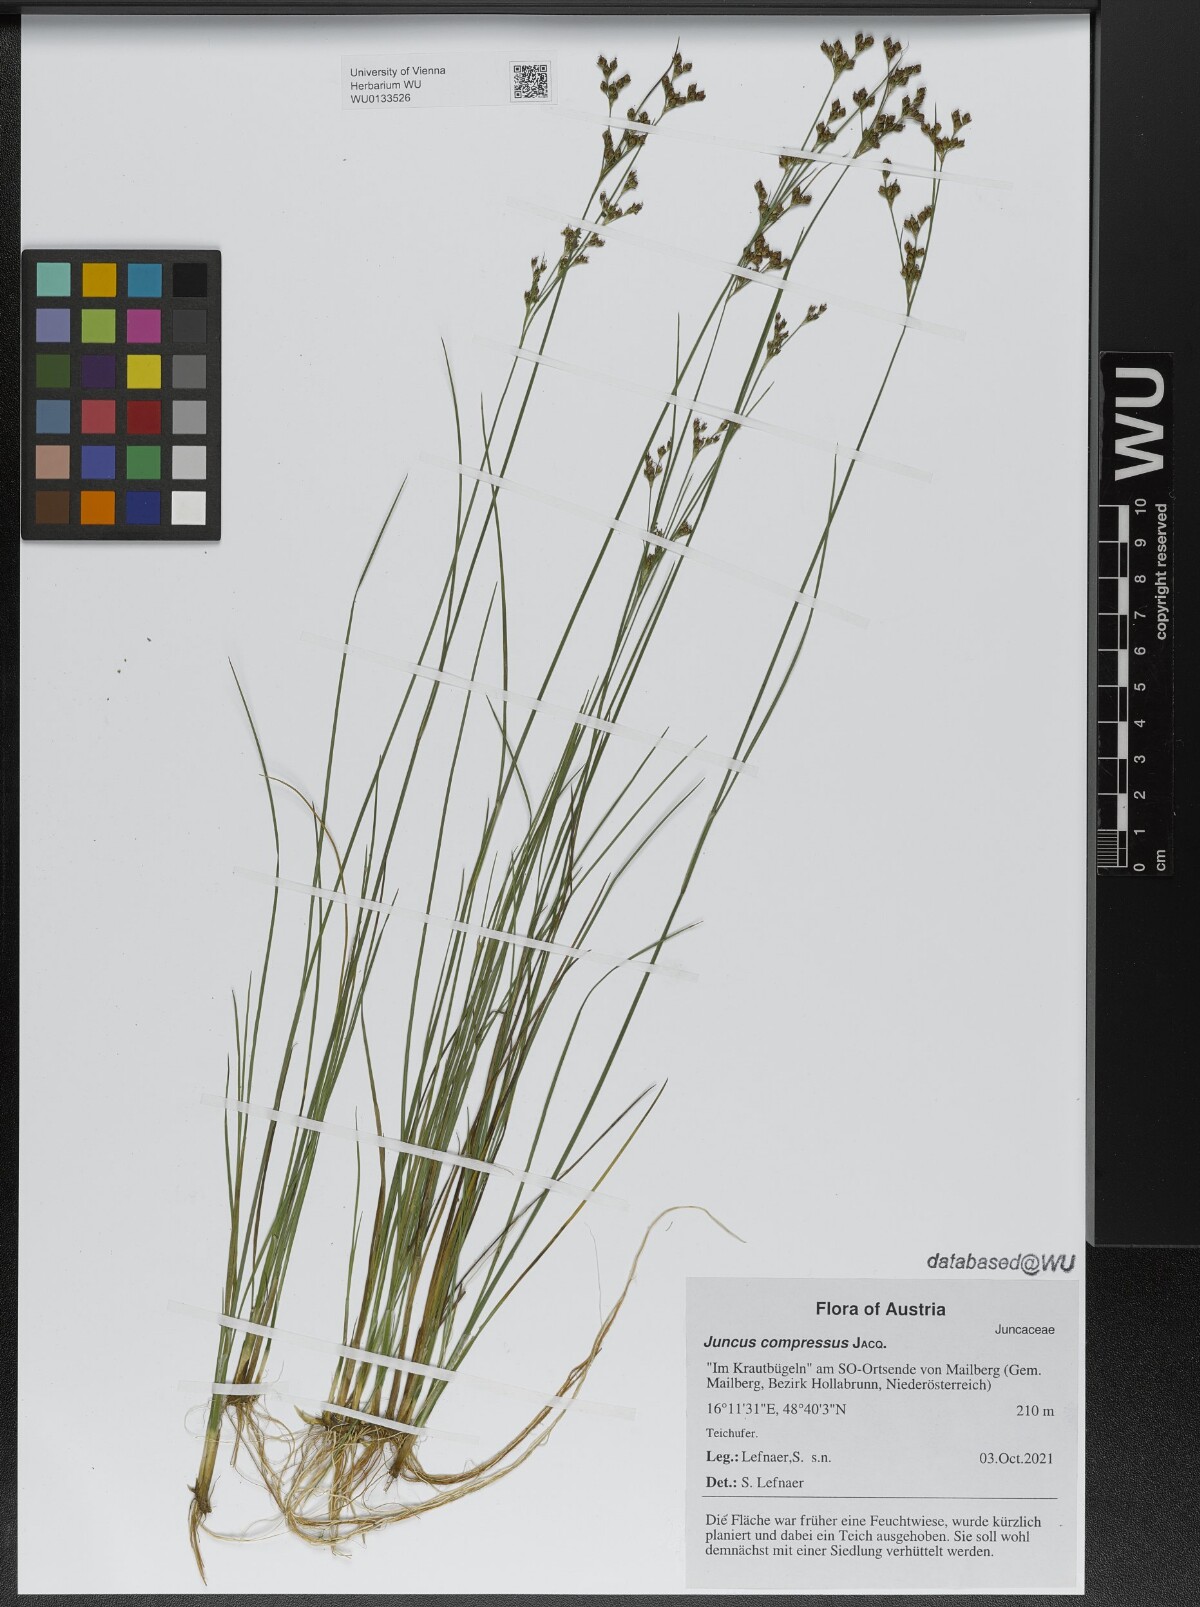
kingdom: Plantae
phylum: Tracheophyta
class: Liliopsida
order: Poales
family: Juncaceae
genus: Juncus
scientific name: Juncus compressus
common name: Round-fruited rush
